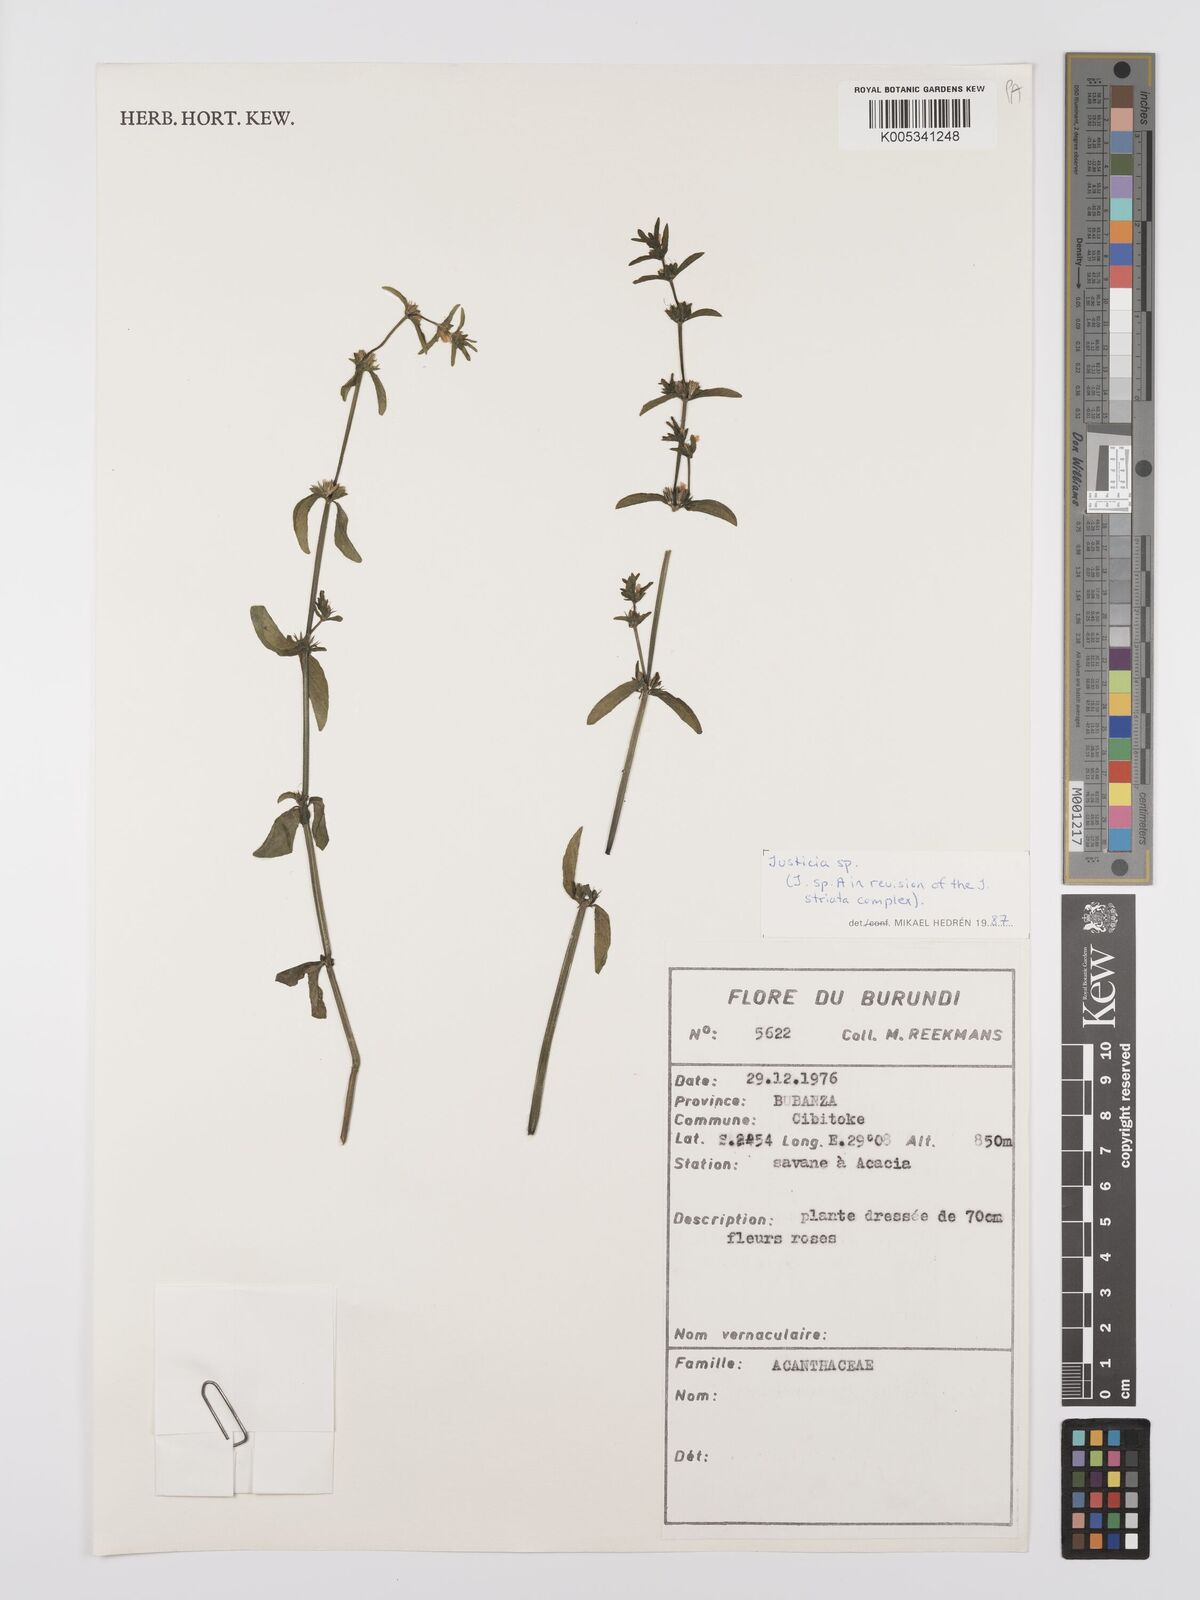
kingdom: Plantae
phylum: Tracheophyta
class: Magnoliopsida
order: Lamiales
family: Acanthaceae
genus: Justicia
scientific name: Justicia boaleri
